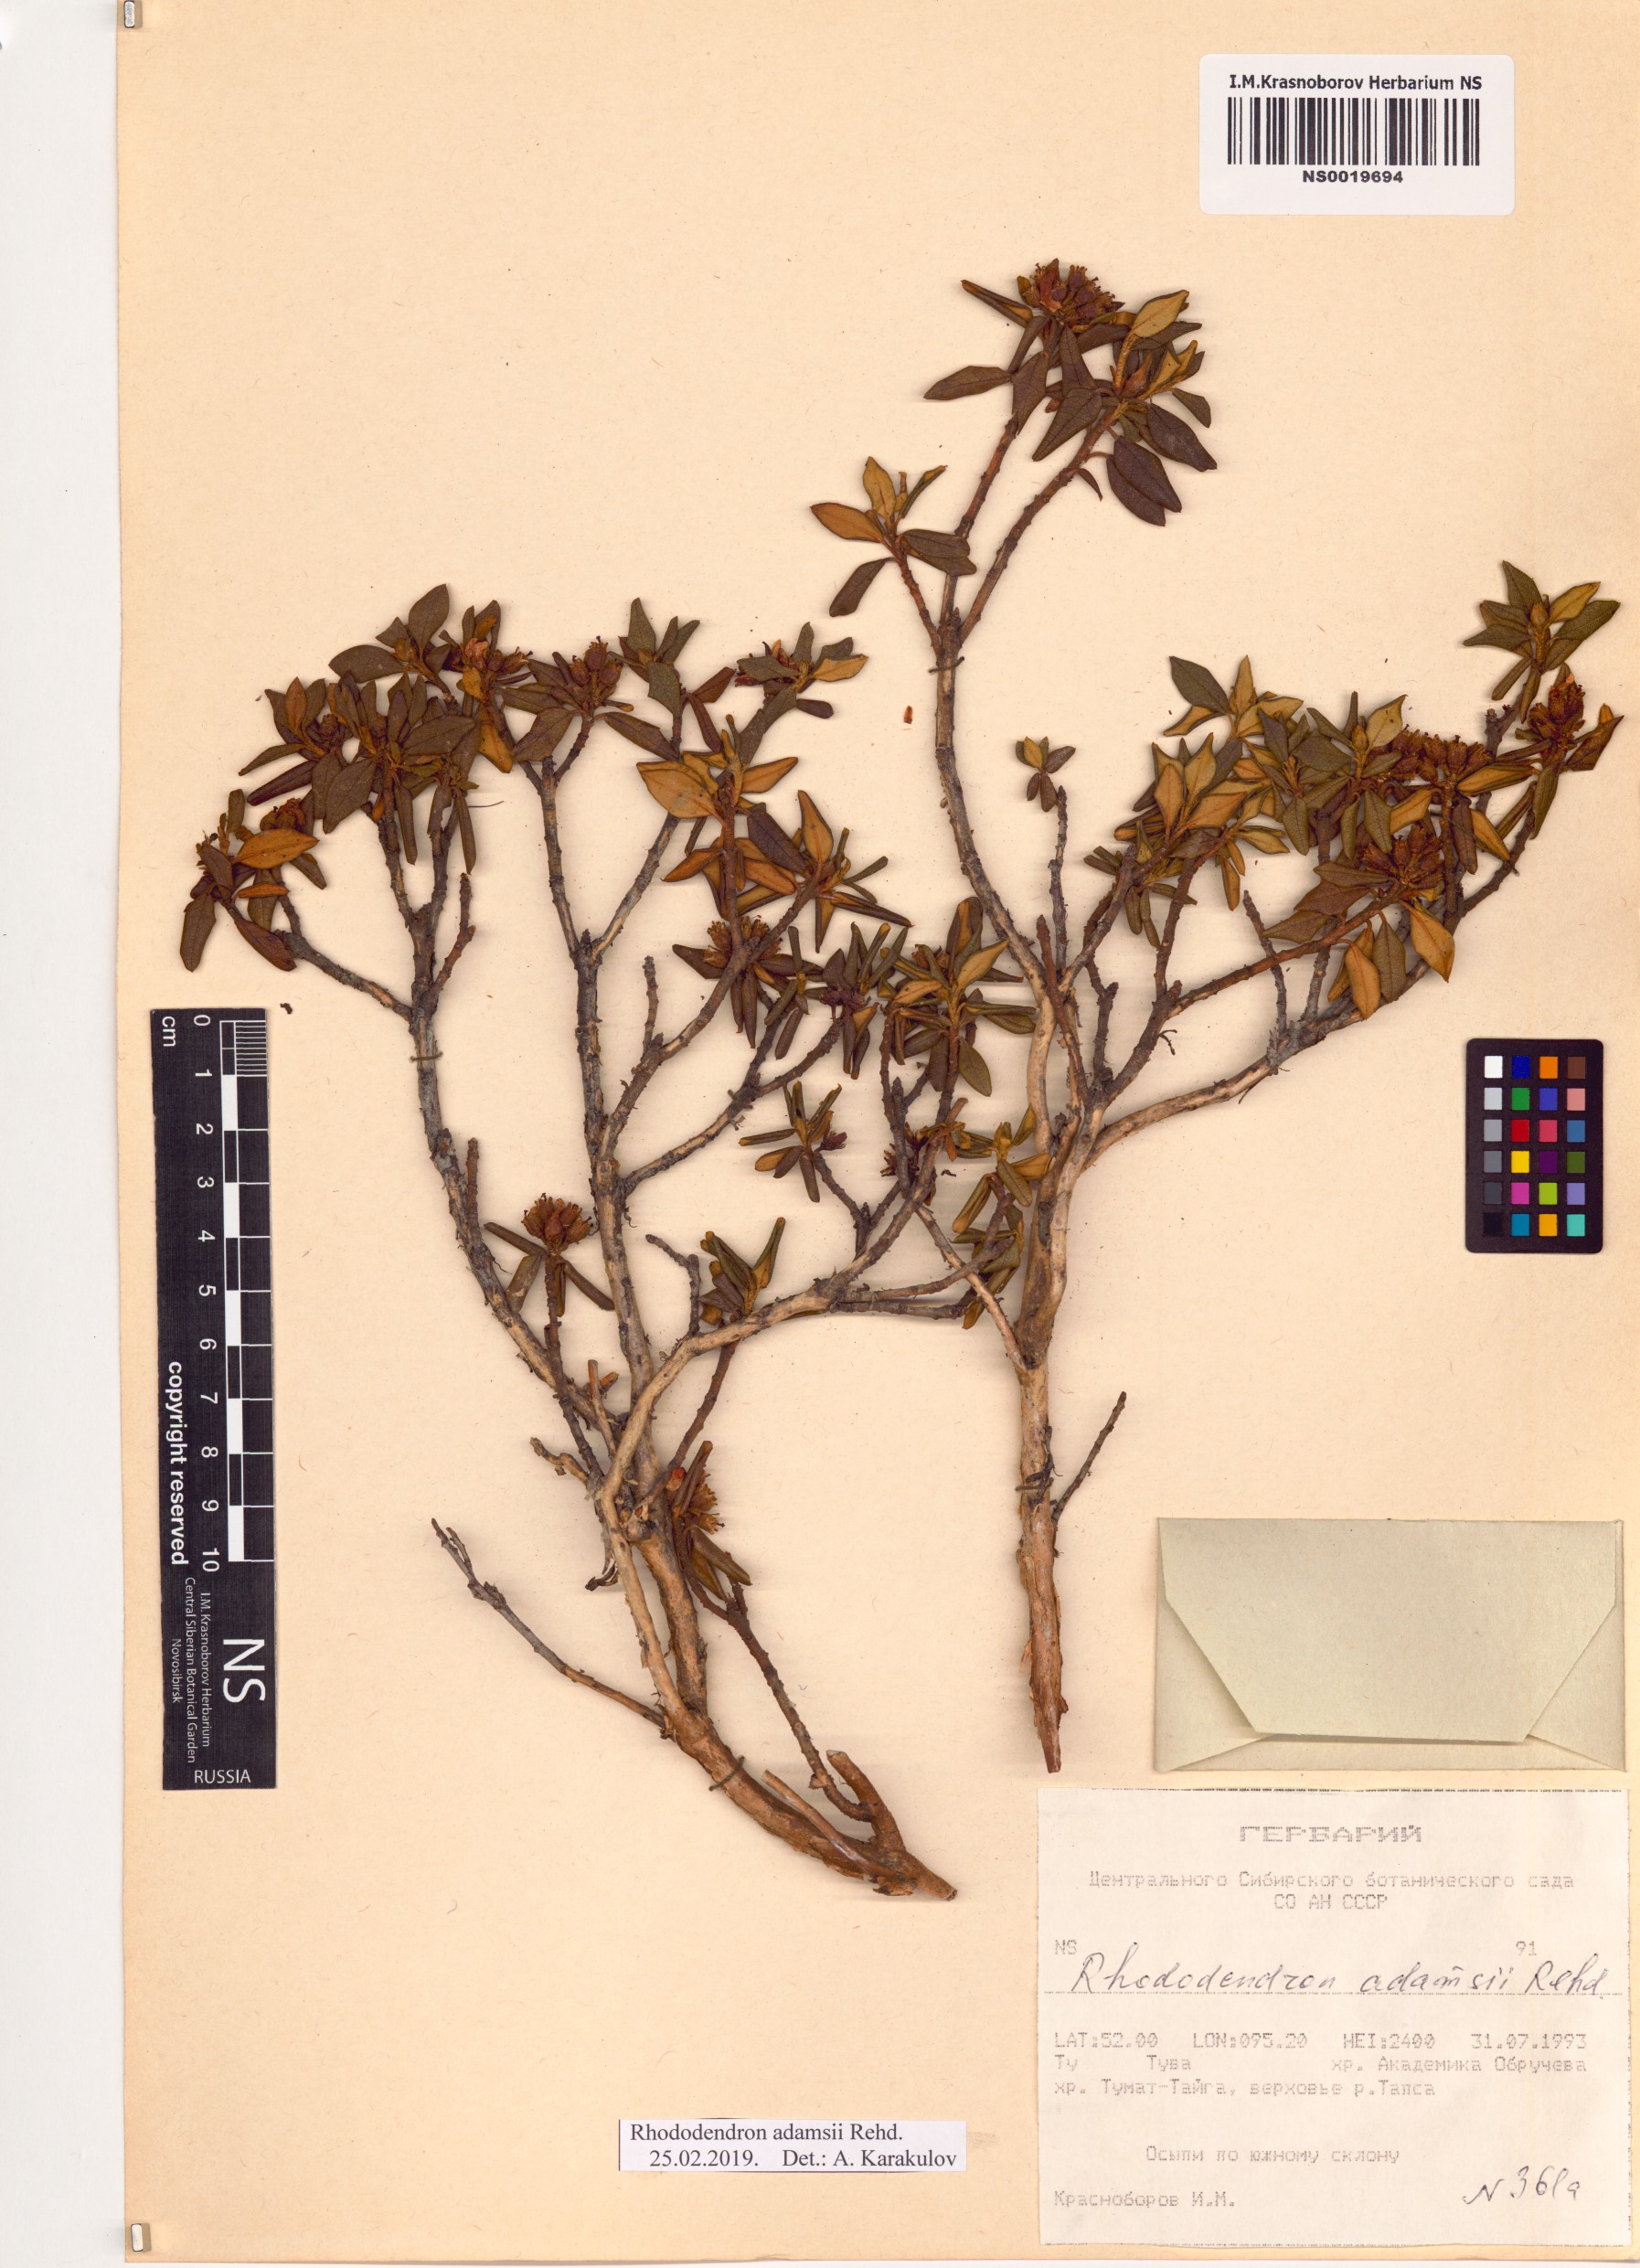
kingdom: Plantae
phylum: Tracheophyta
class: Magnoliopsida
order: Ericales
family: Ericaceae
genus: Rhododendron
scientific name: Rhododendron adamsii
